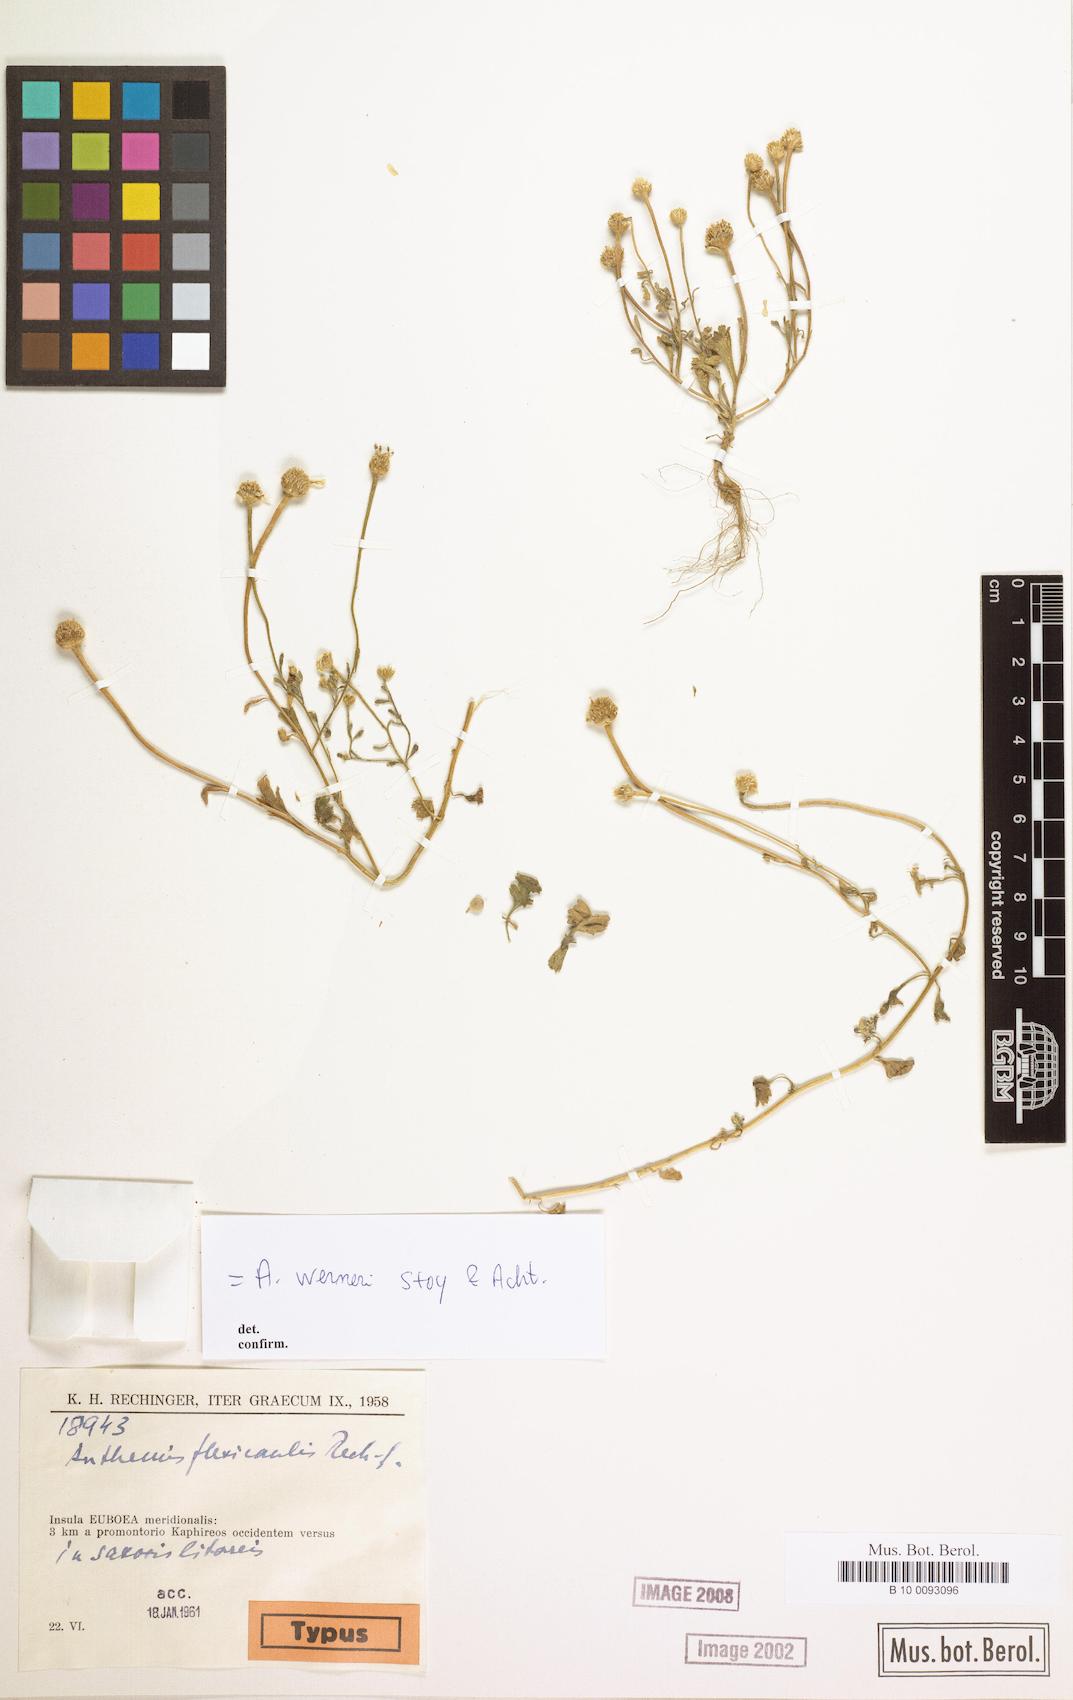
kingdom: Plantae
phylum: Tracheophyta
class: Magnoliopsida
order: Asterales
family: Asteraceae
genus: Anthemis
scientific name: Anthemis werneri
